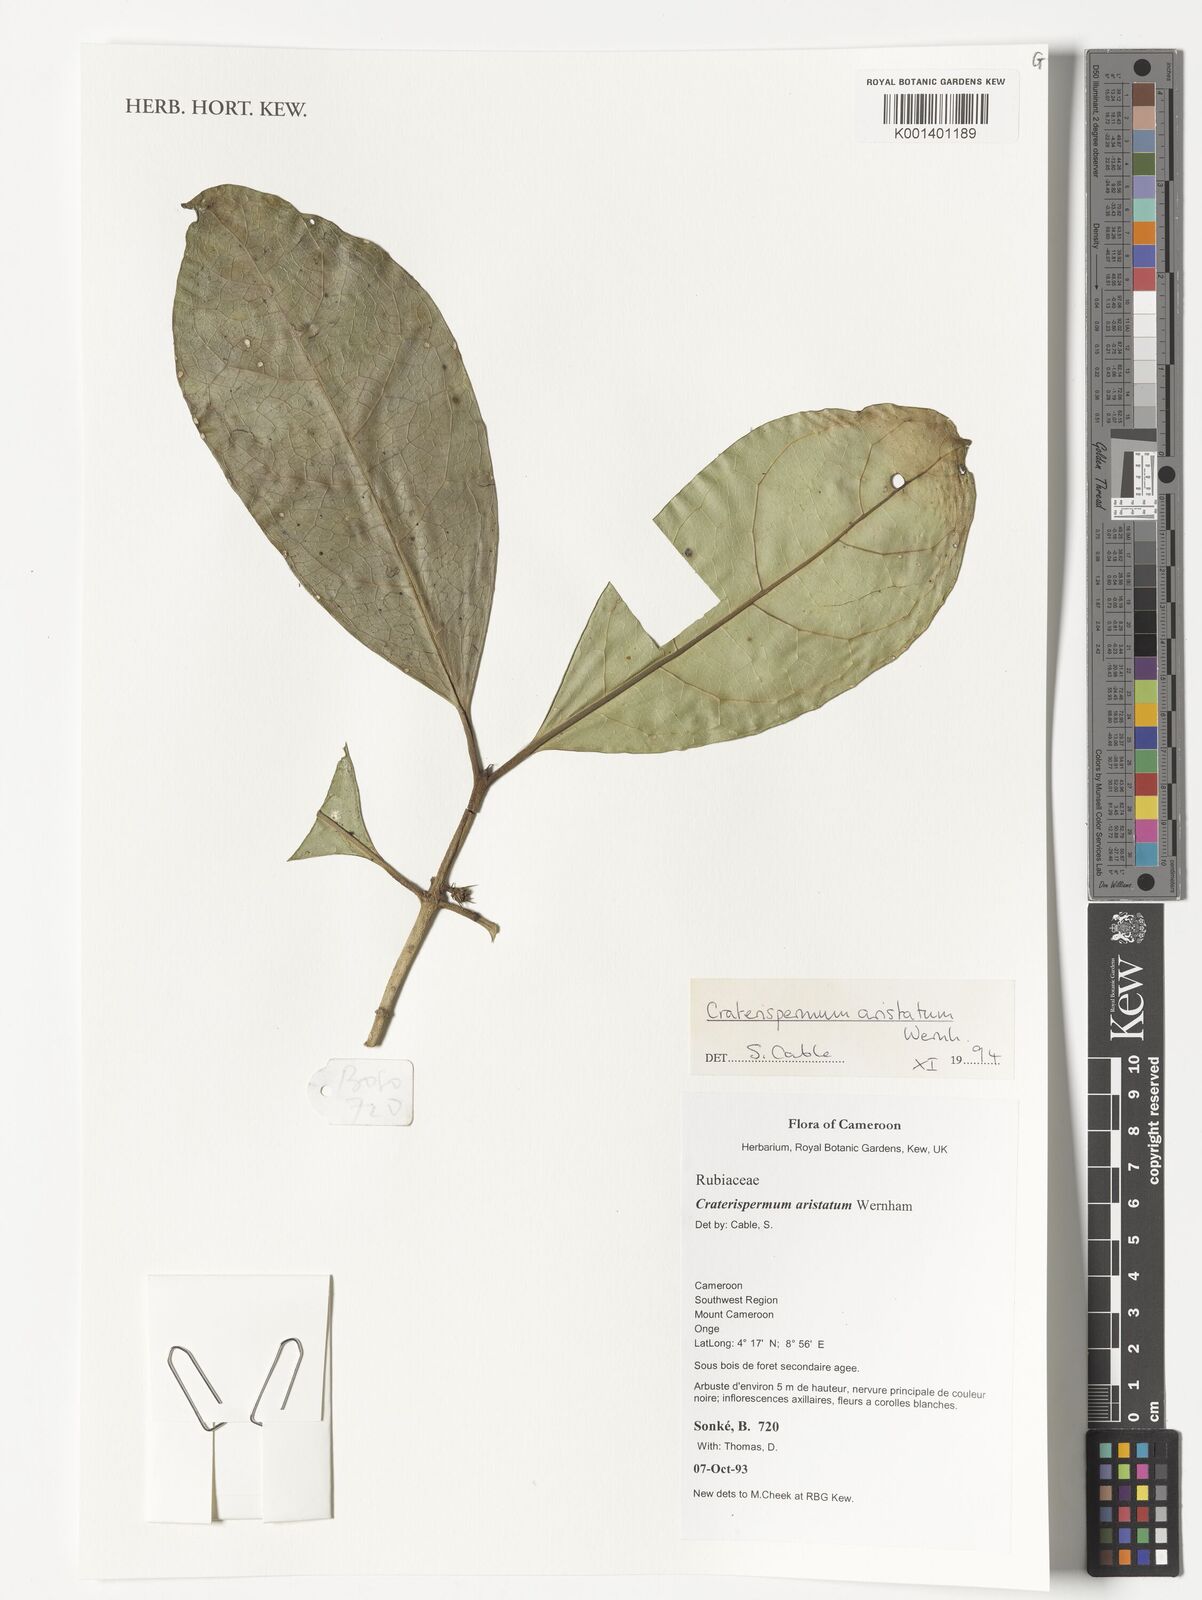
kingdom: Plantae
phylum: Tracheophyta
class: Magnoliopsida
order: Gentianales
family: Rubiaceae
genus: Craterispermum
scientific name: Craterispermum aristatum
